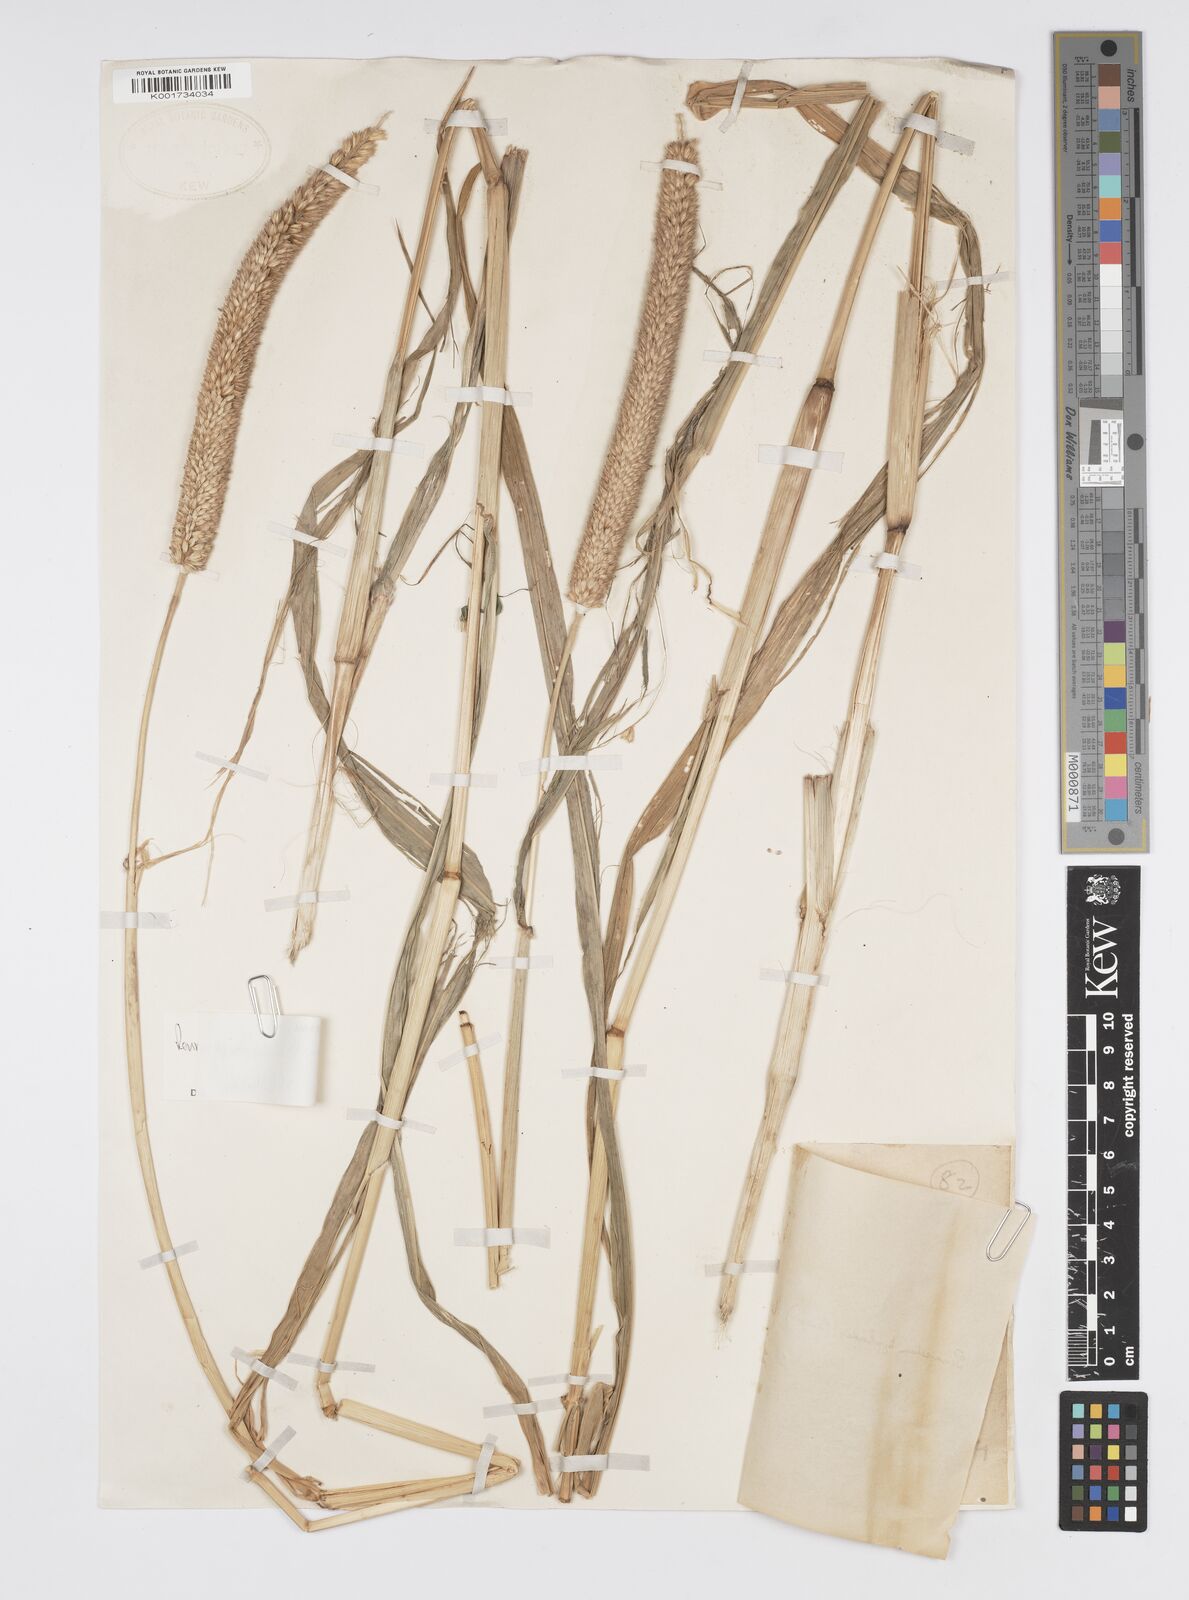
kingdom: Plantae
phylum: Tracheophyta
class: Liliopsida
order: Poales
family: Poaceae
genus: Cenchrus
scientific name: Cenchrus sieberianus
